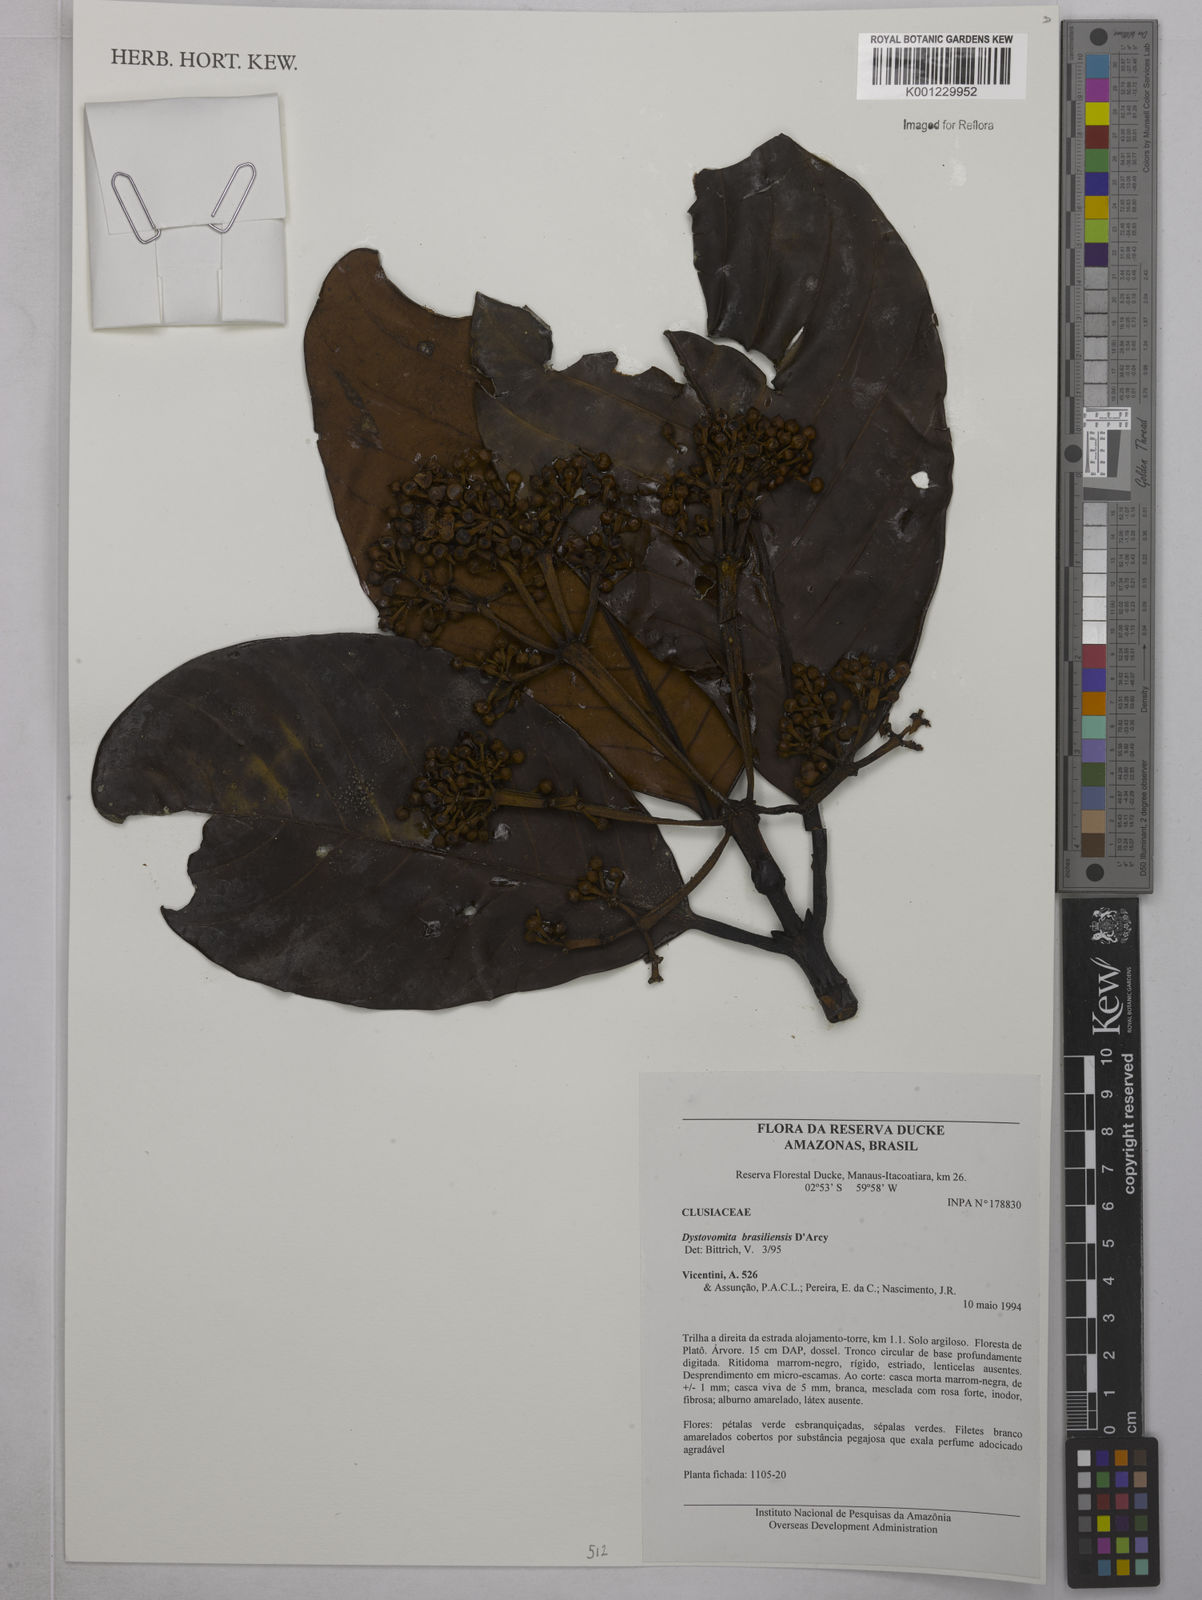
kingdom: Plantae
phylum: Tracheophyta
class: Magnoliopsida
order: Malpighiales
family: Clusiaceae
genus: Tovomita
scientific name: Tovomita hopkinsii
